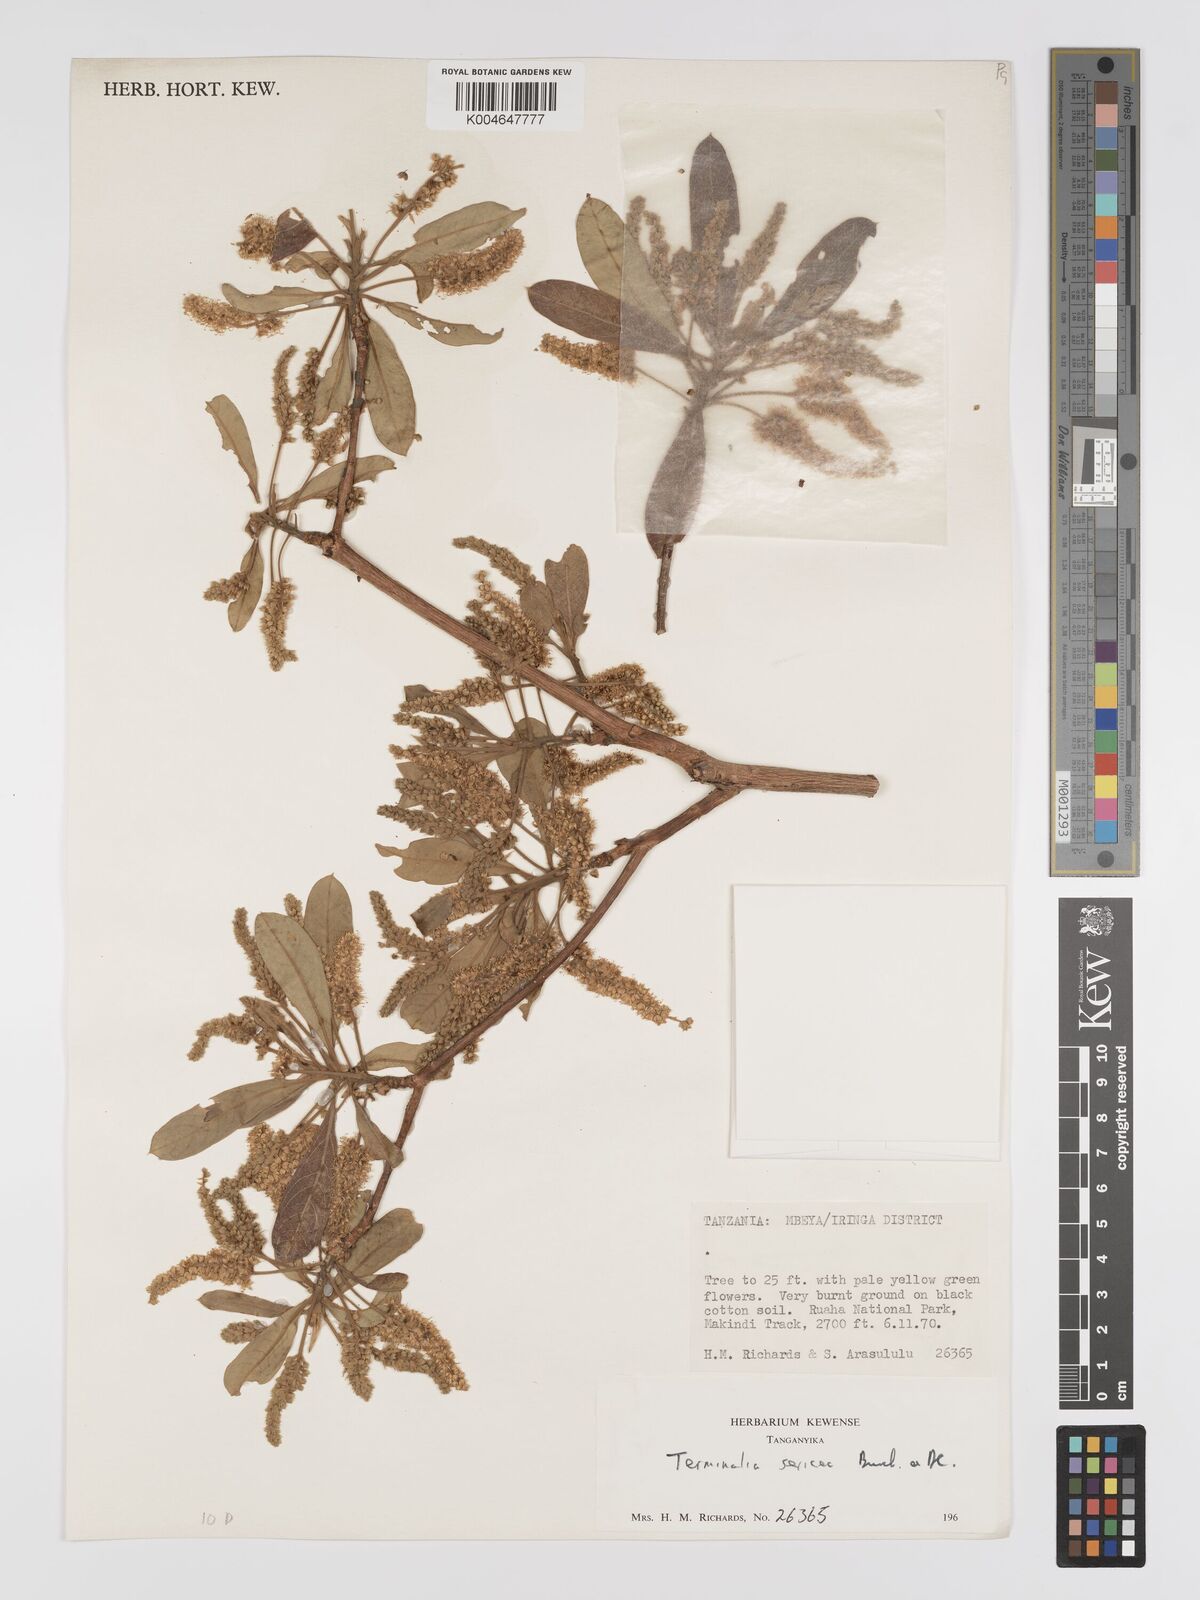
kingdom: Plantae
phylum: Tracheophyta
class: Magnoliopsida
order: Myrtales
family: Combretaceae
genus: Terminalia
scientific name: Terminalia
